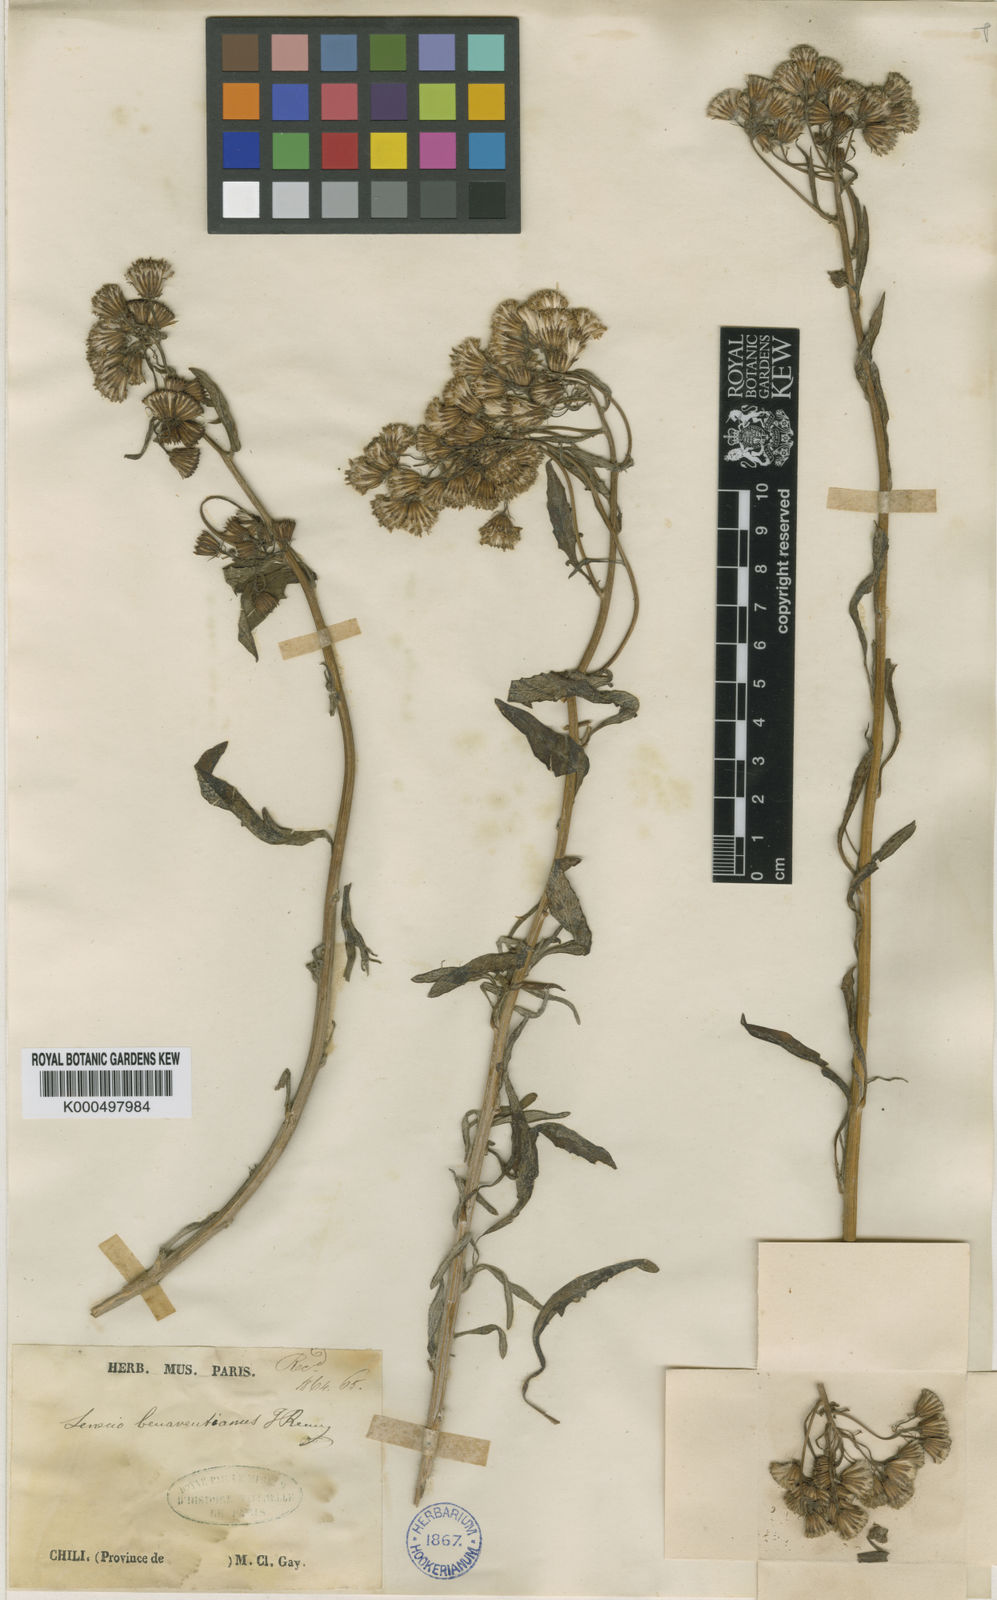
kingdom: Plantae
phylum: Tracheophyta
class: Magnoliopsida
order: Asterales
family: Asteraceae
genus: Senecio
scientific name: Senecio benaventianus
